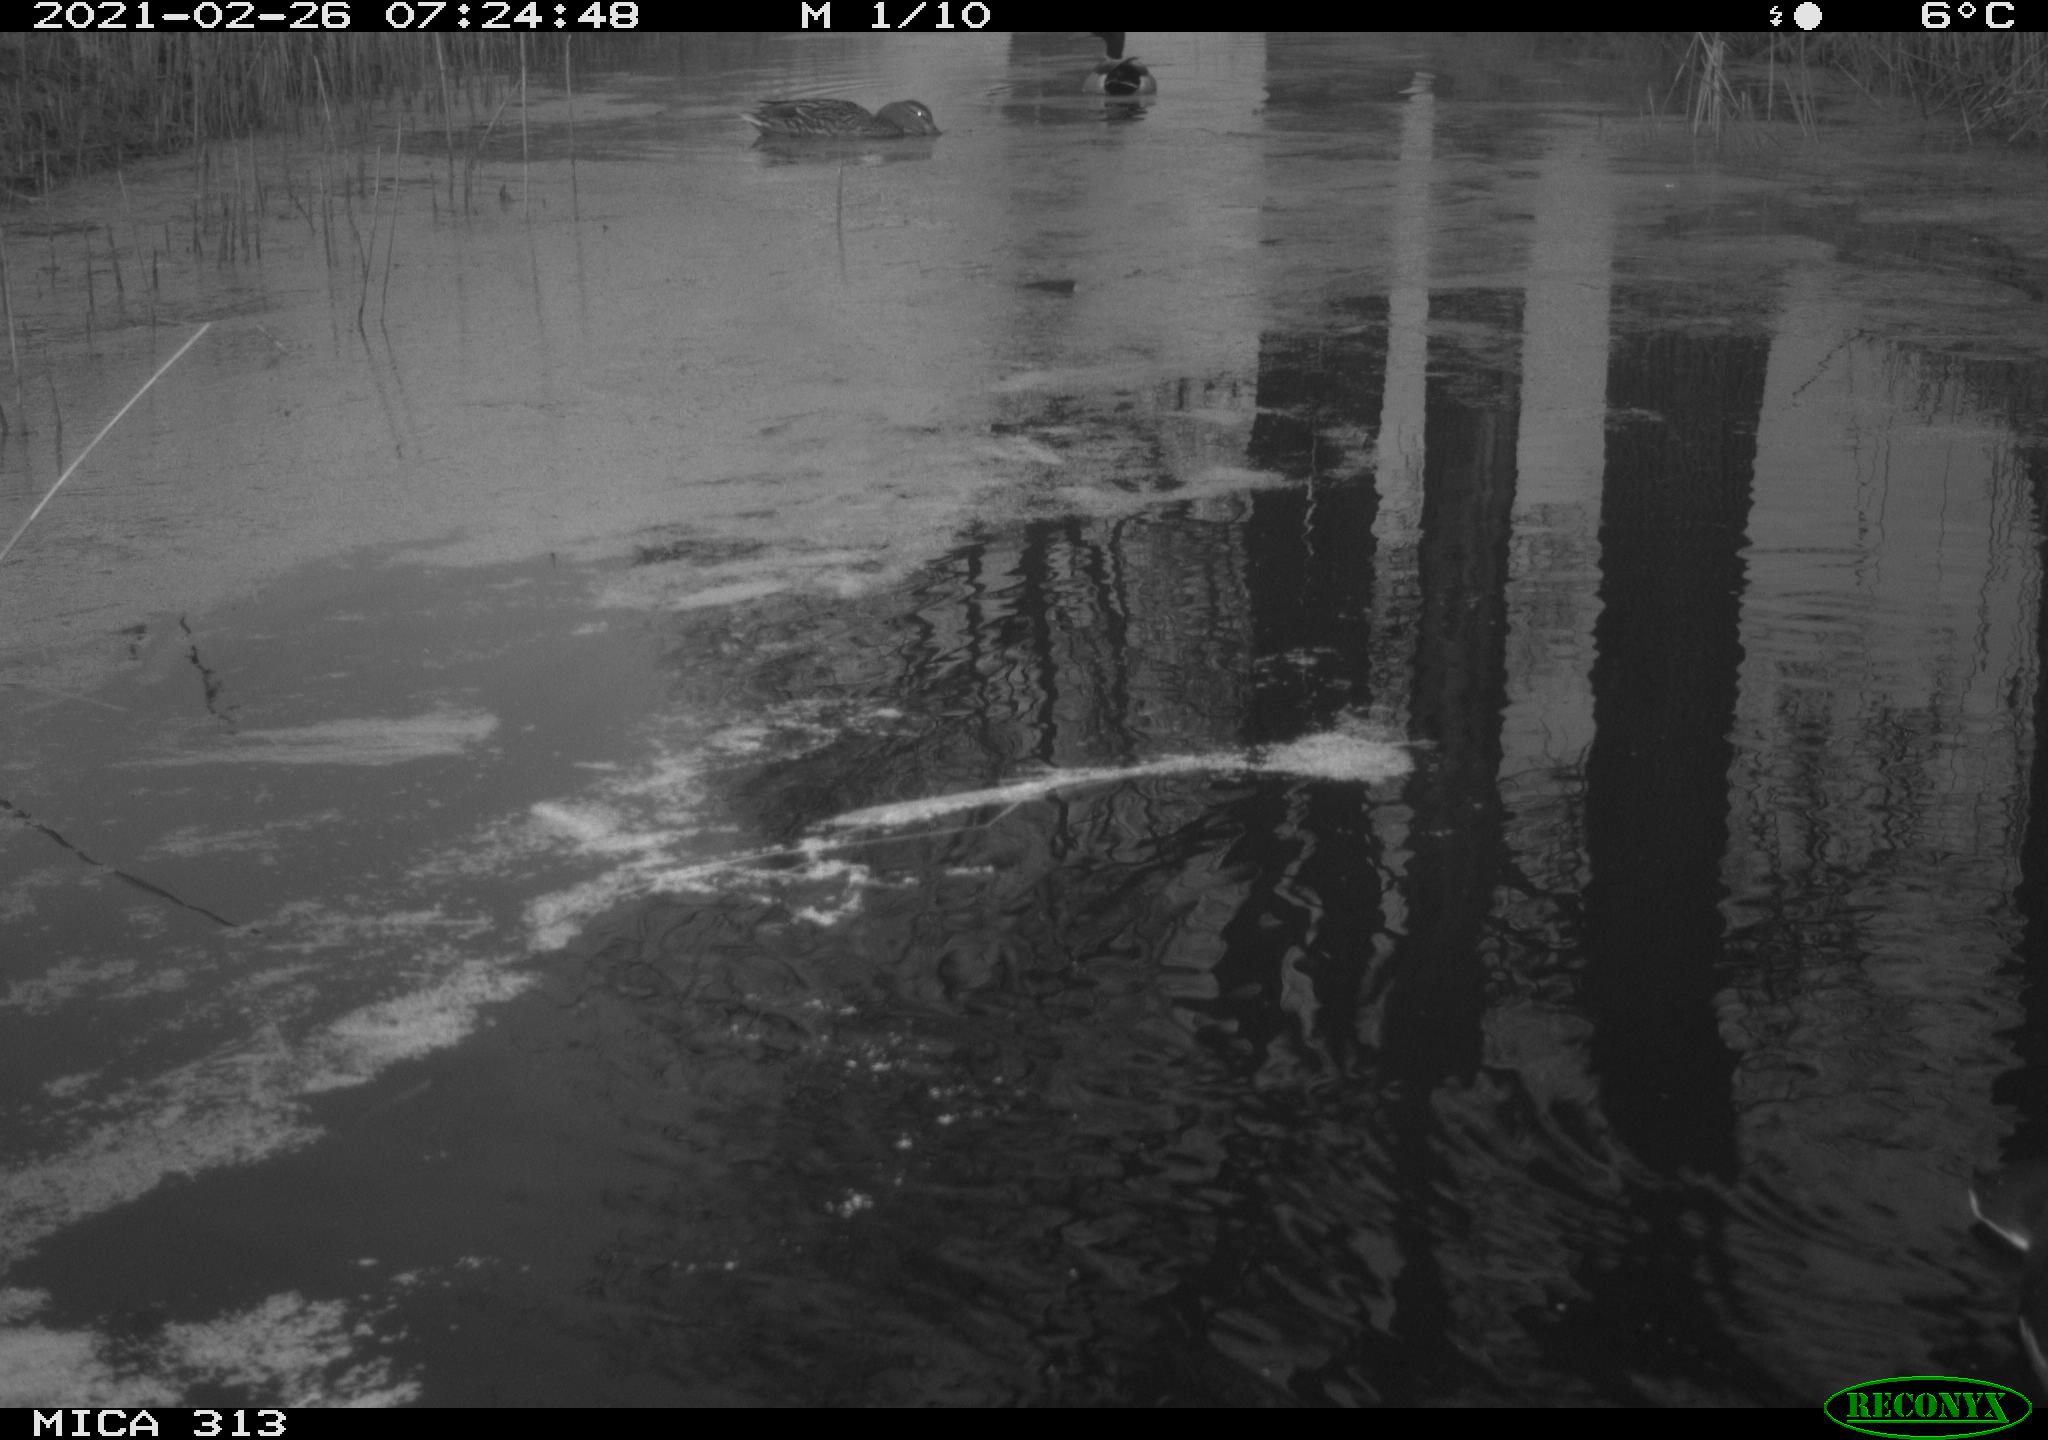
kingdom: Animalia
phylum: Chordata
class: Aves
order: Anseriformes
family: Anatidae
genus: Anas
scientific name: Anas
